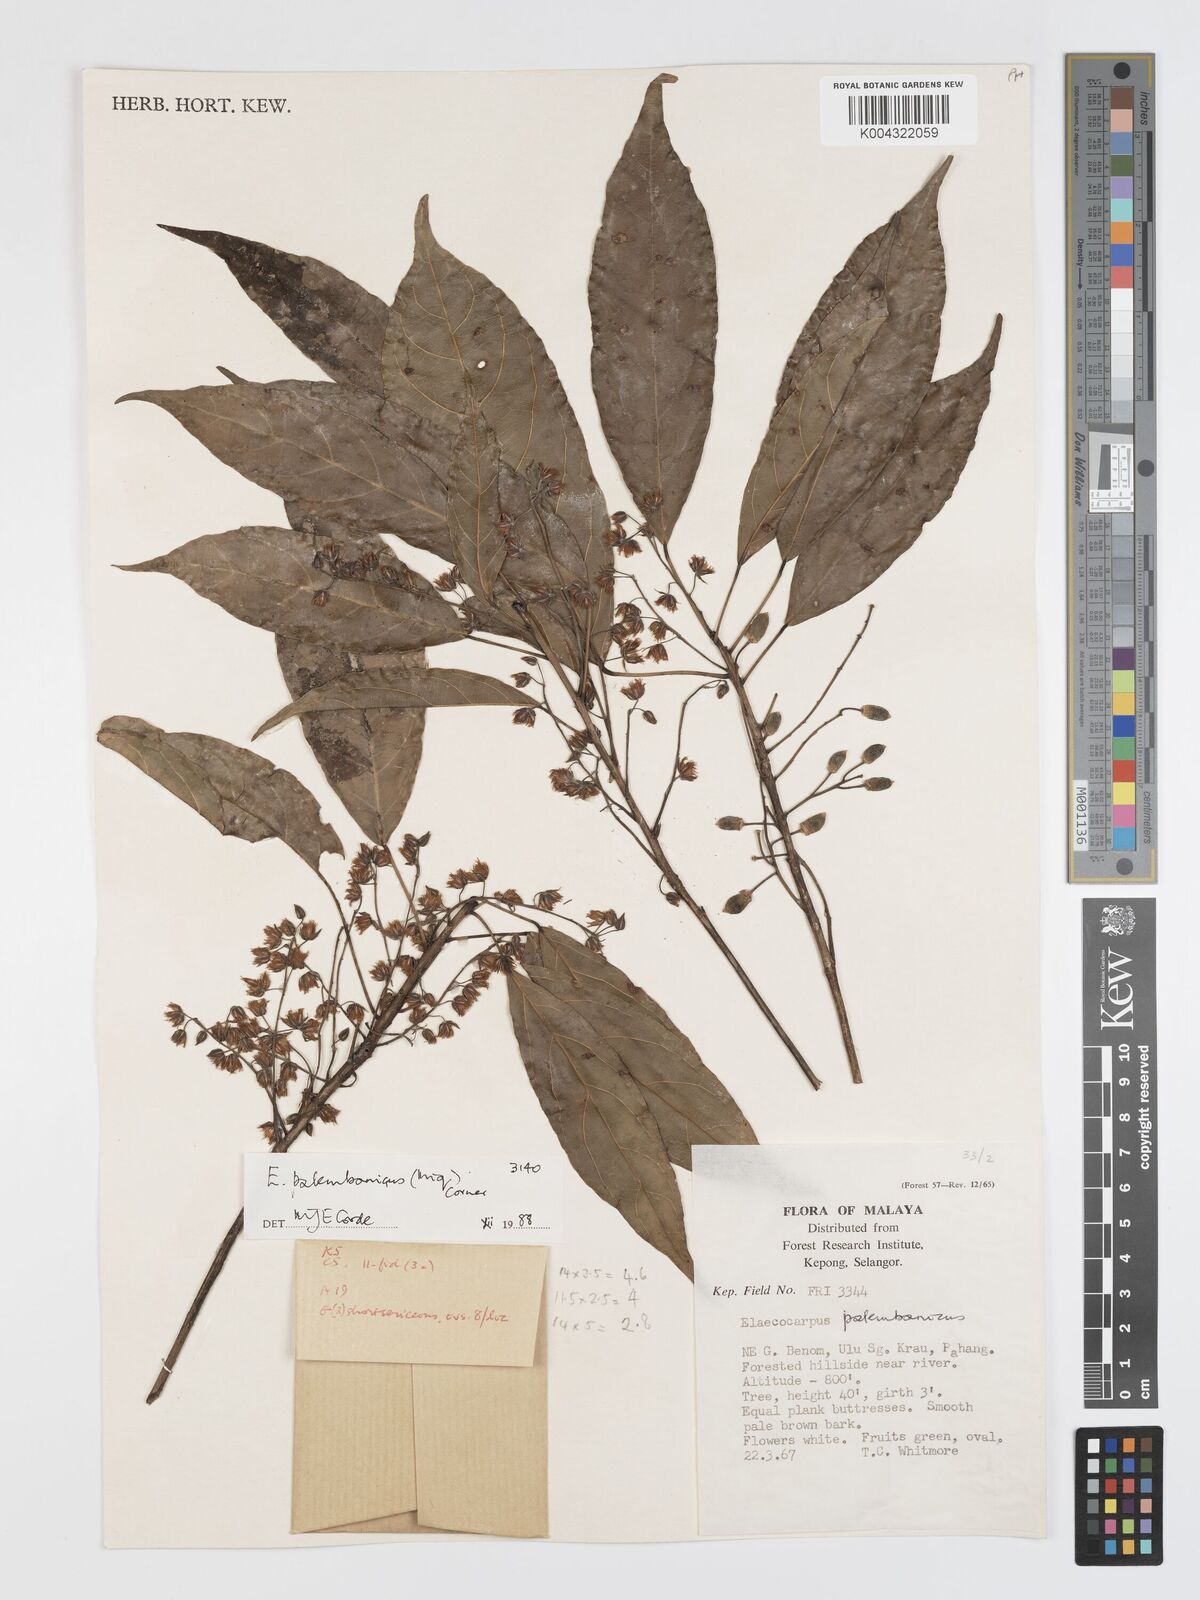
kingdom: Plantae
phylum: Tracheophyta
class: Magnoliopsida
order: Oxalidales
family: Elaeocarpaceae
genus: Elaeocarpus
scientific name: Elaeocarpus palembanicus
